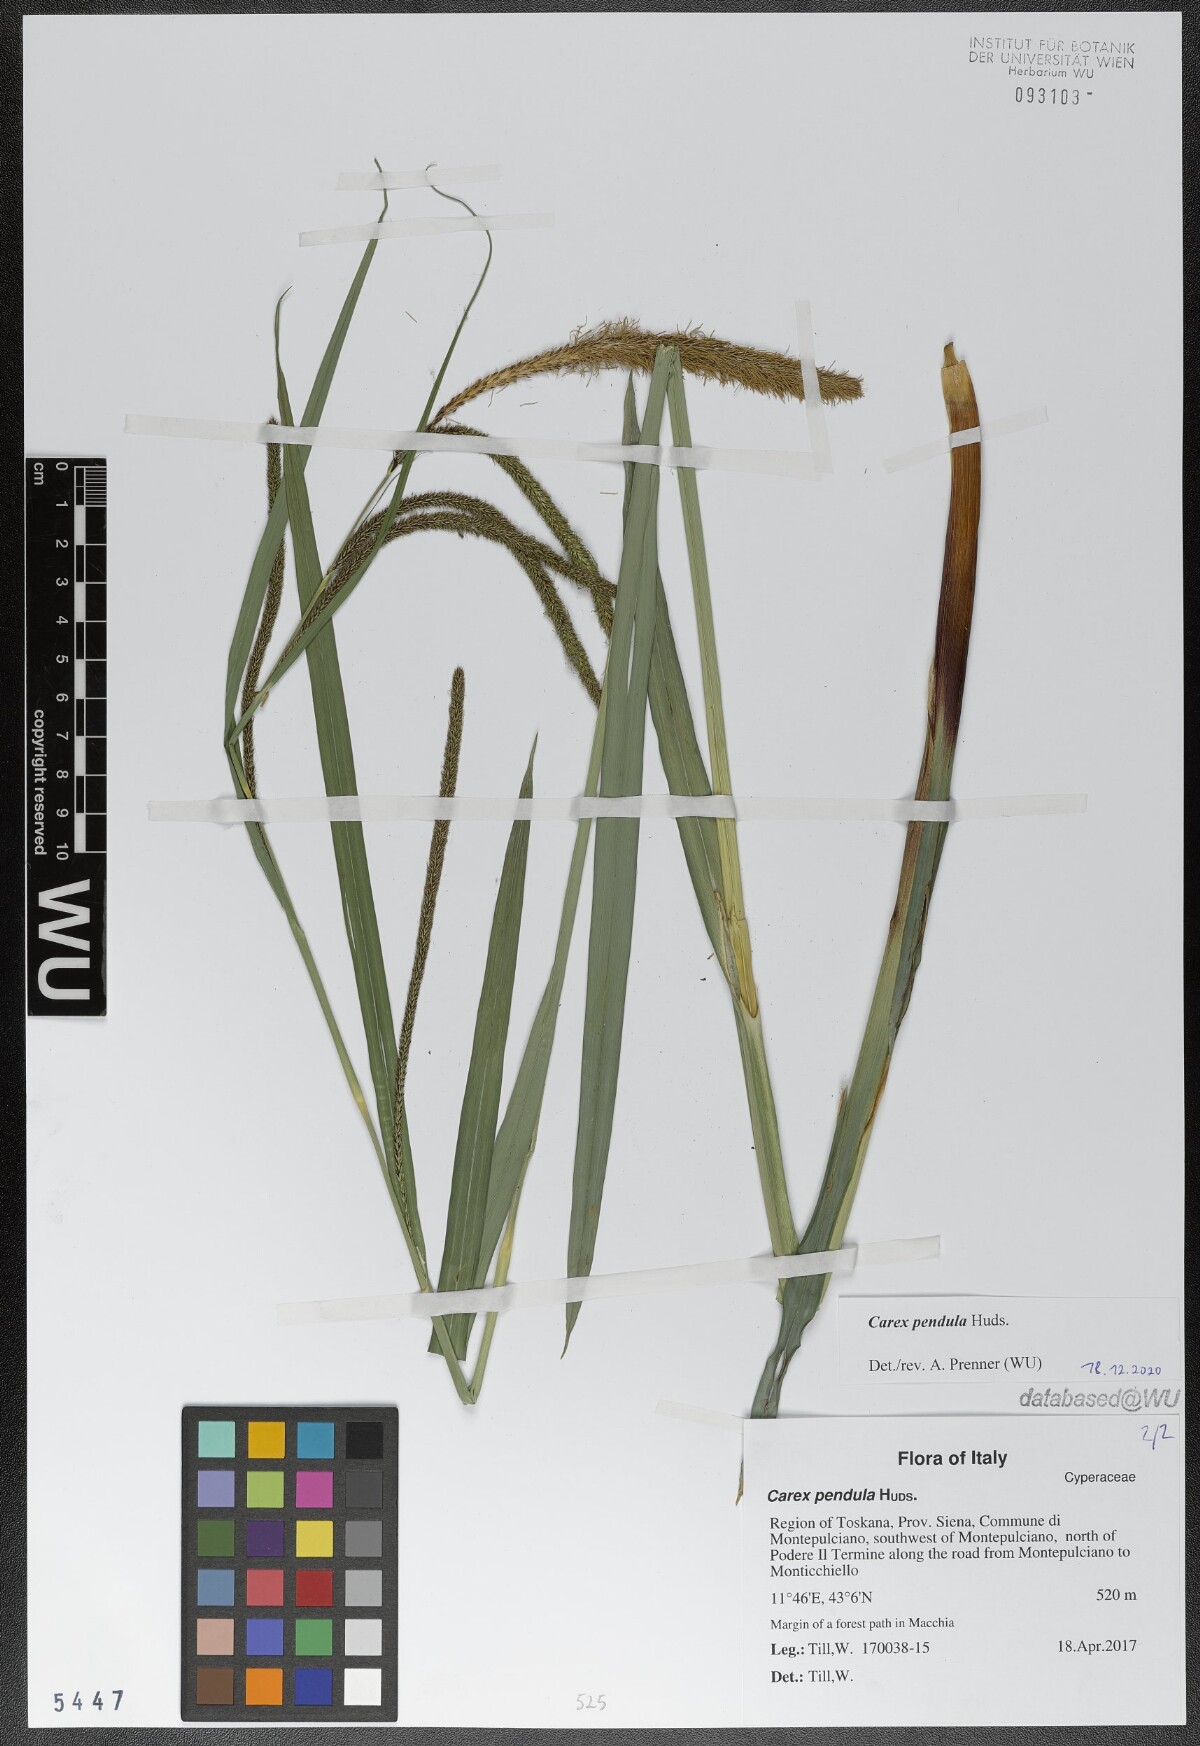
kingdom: Plantae
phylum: Tracheophyta
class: Liliopsida
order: Poales
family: Cyperaceae
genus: Carex
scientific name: Carex pendula
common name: Pendulous sedge
